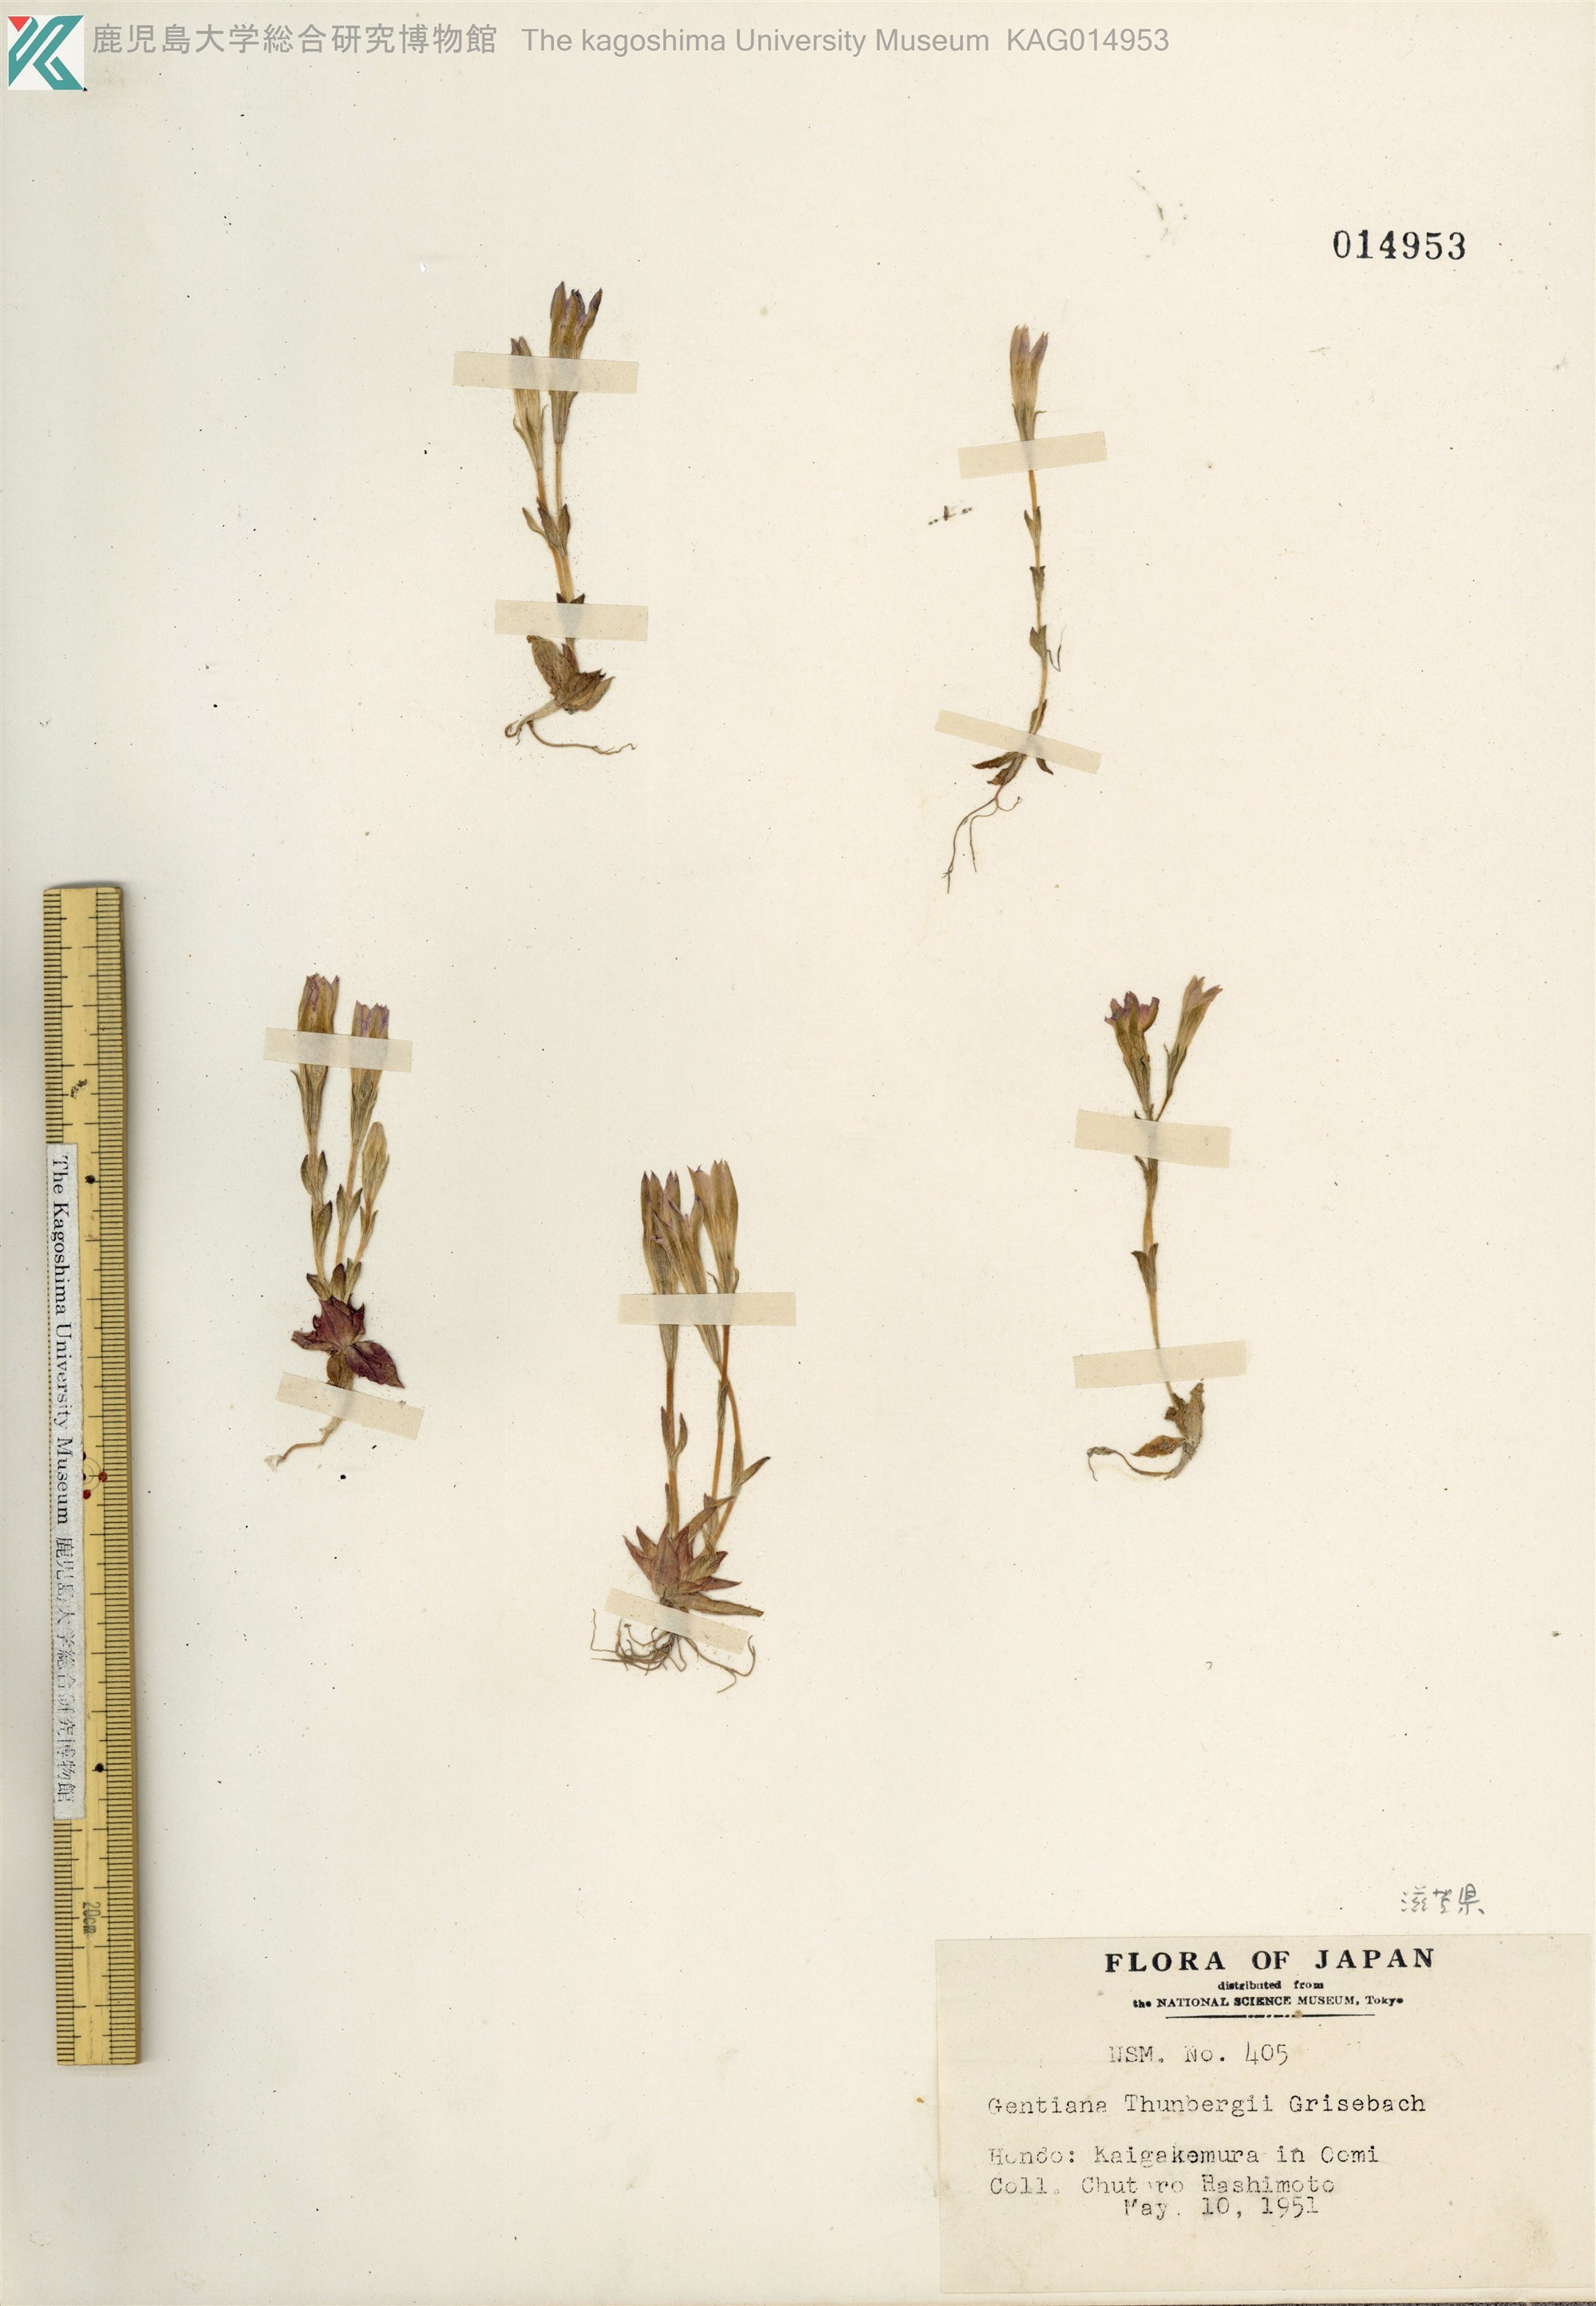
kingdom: Plantae
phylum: Tracheophyta
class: Magnoliopsida
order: Gentianales
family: Gentianaceae
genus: Gentiana
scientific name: Gentiana thunbergii
